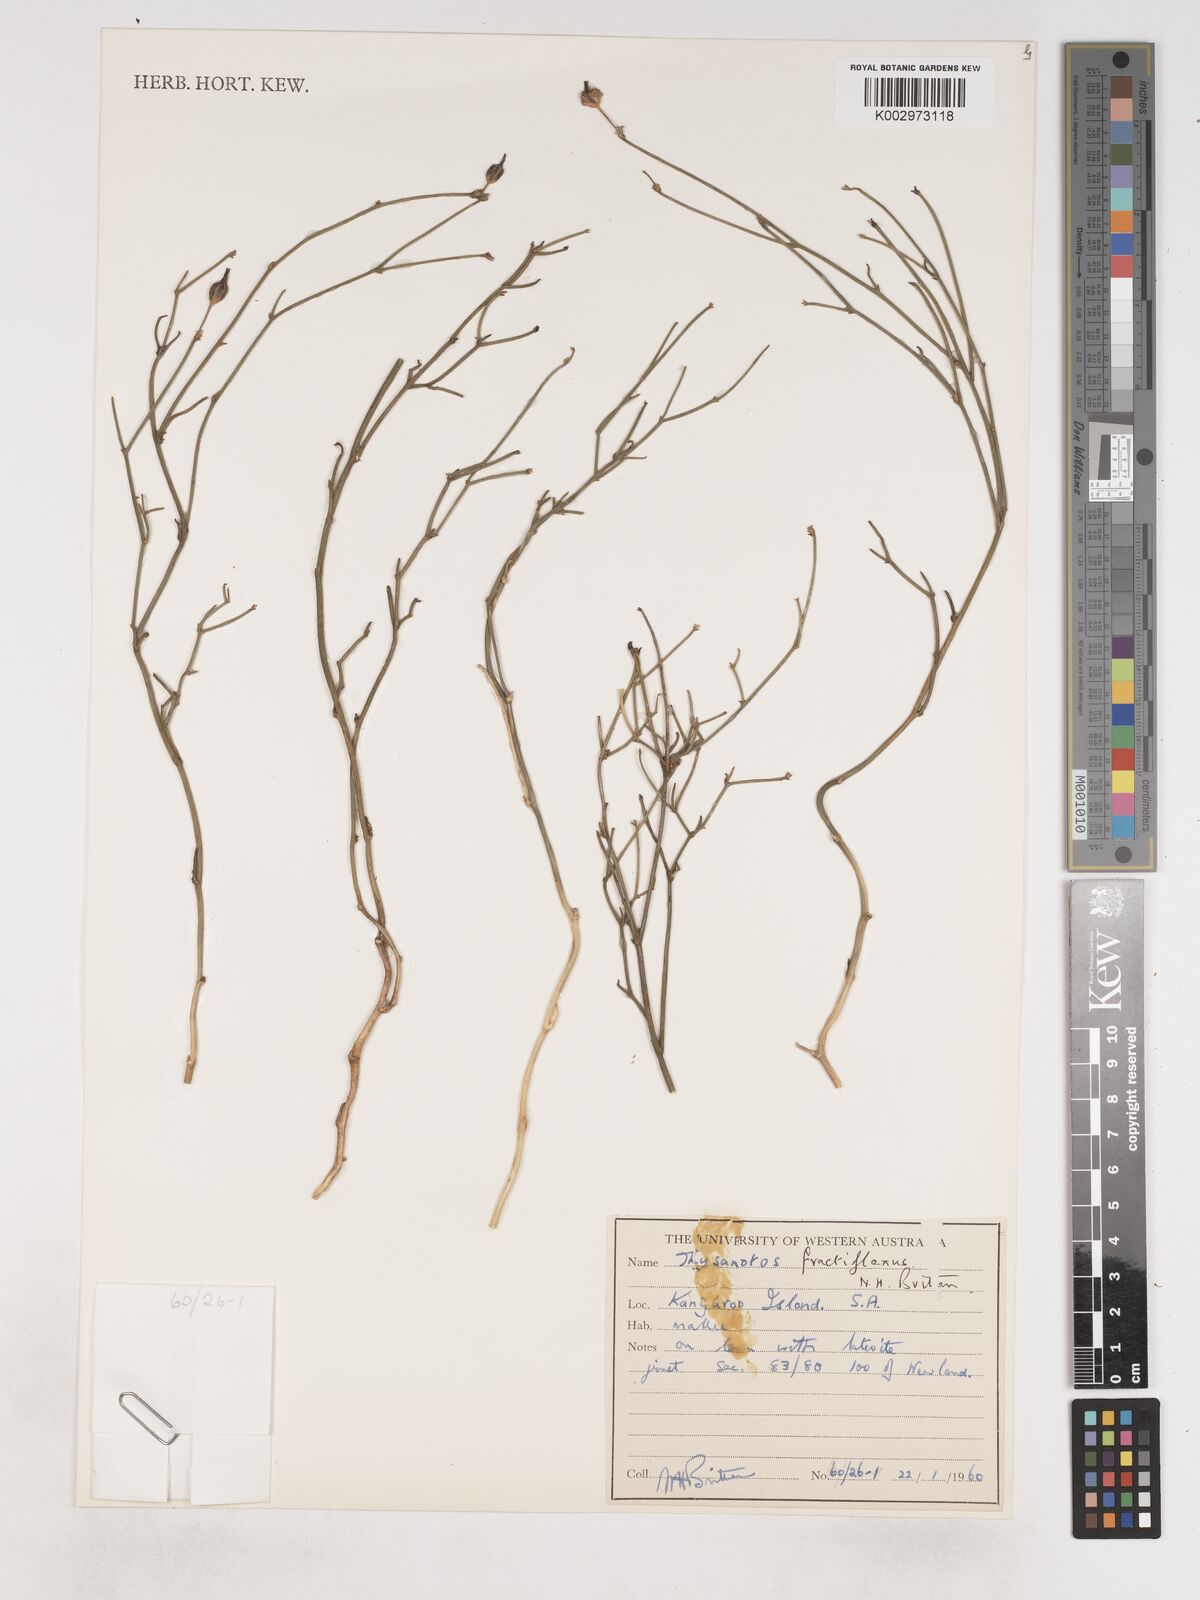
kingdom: Plantae
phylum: Tracheophyta
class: Liliopsida
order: Asparagales
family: Asparagaceae
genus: Thysanotus
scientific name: Thysanotus fractiflexus
